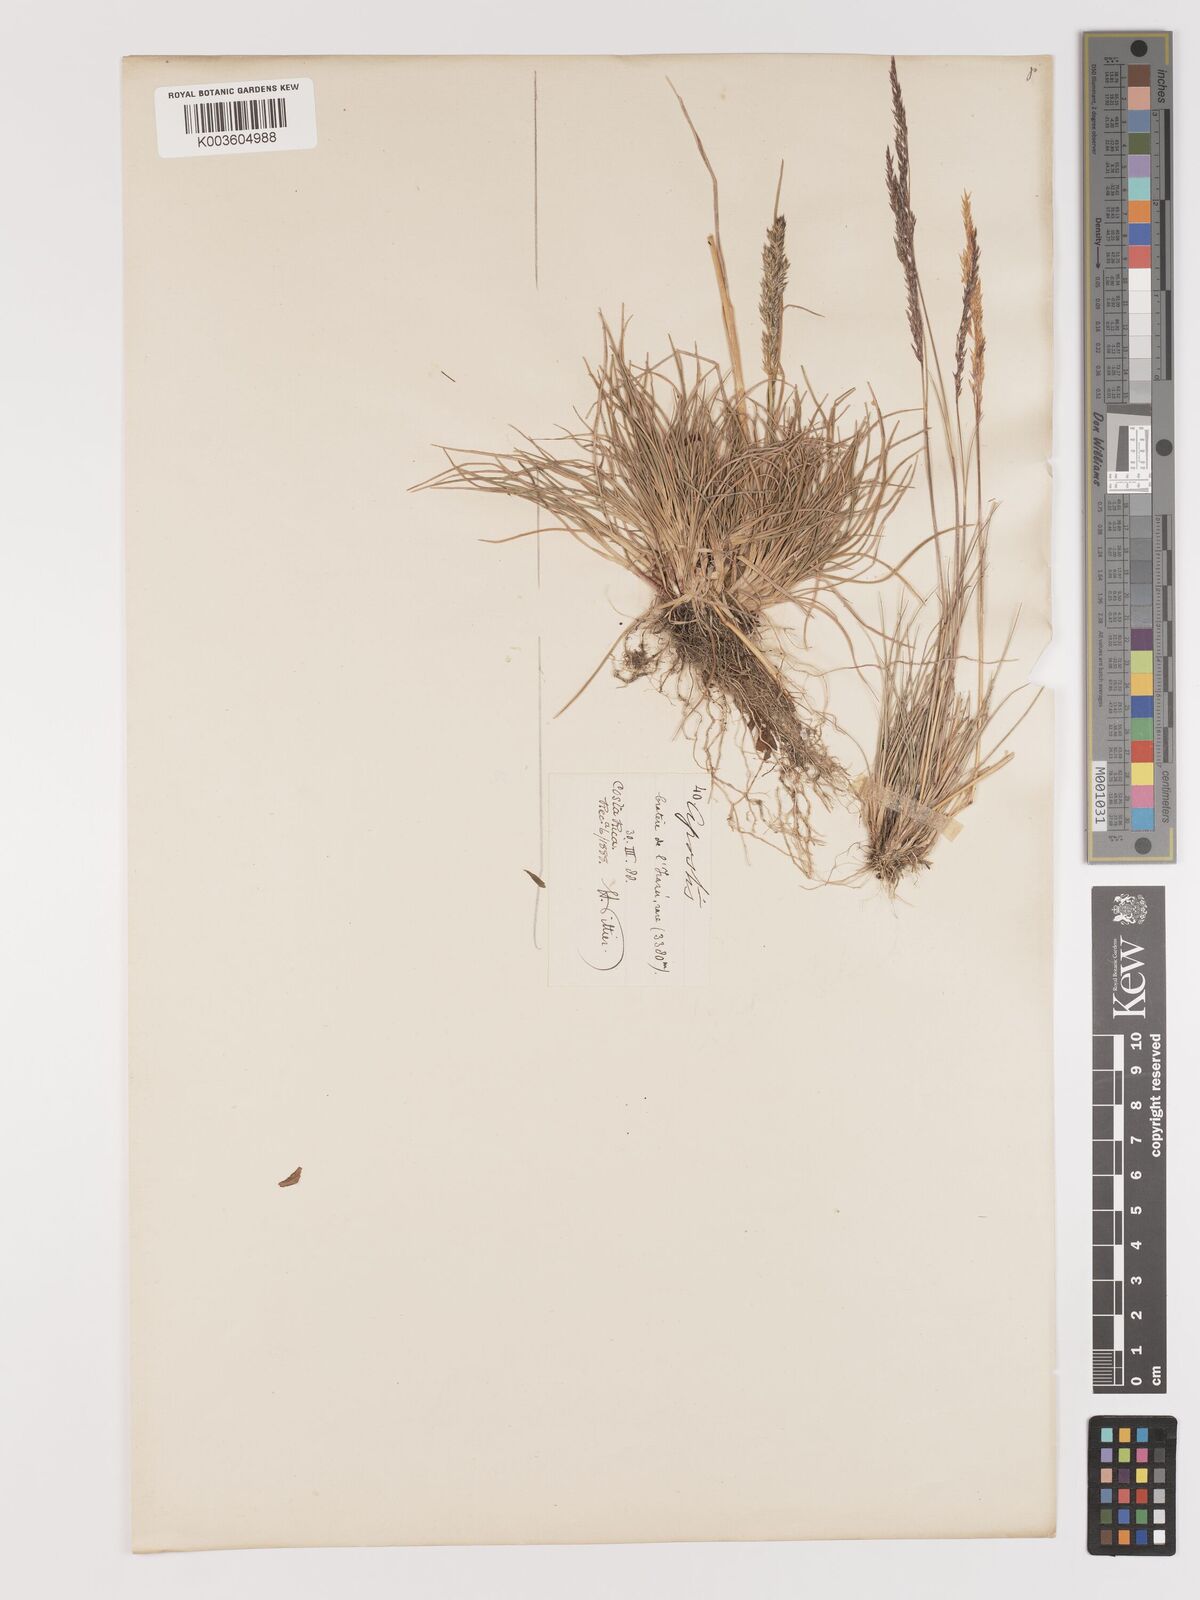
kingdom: Plantae
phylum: Tracheophyta
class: Liliopsida
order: Poales
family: Poaceae
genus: Agrostis
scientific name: Agrostis tolucensis
